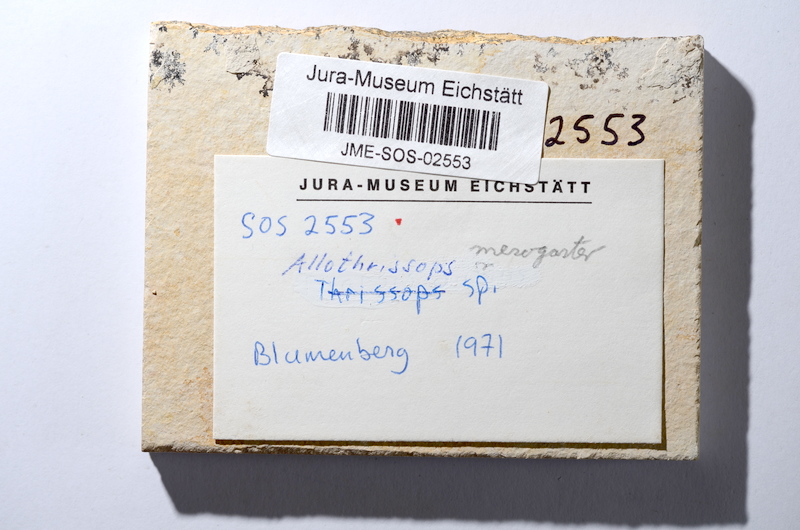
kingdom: Animalia
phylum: Chordata
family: Allothrissopidae
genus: Allothrissops
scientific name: Allothrissops mesogaster
